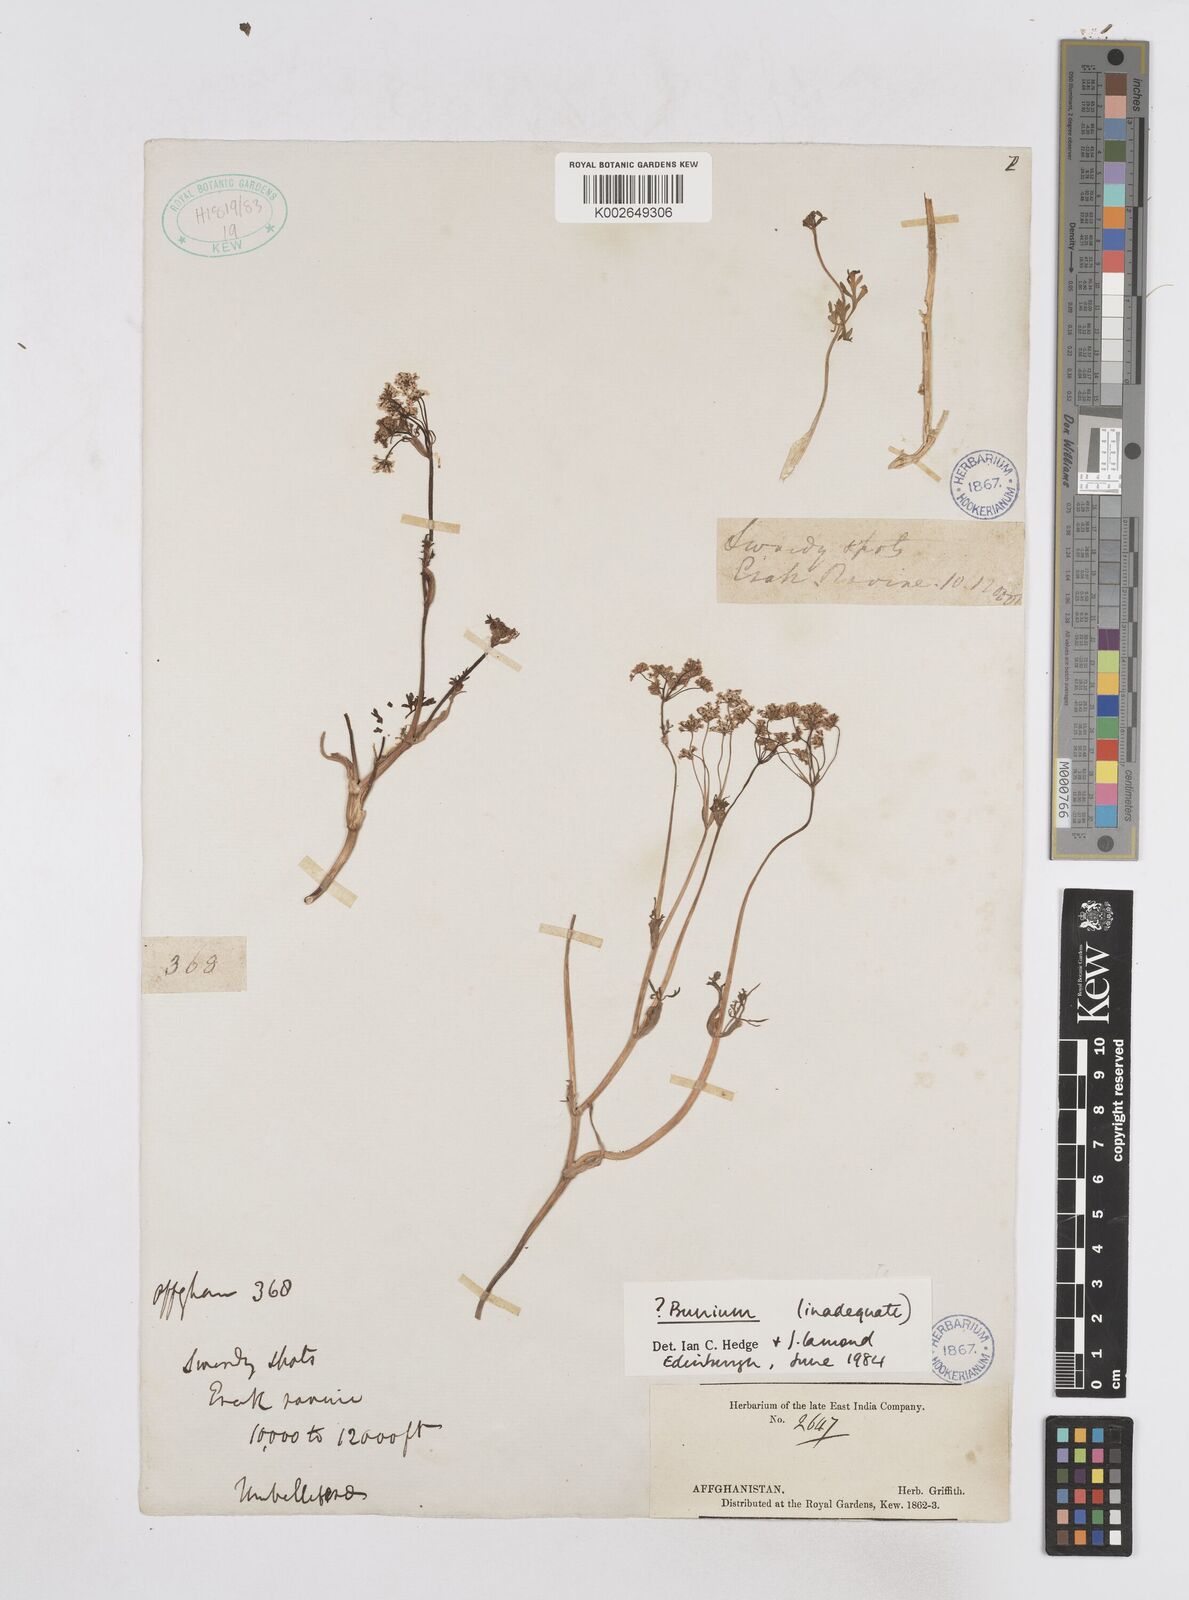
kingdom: Plantae
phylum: Tracheophyta
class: Magnoliopsida
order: Apiales
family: Apiaceae
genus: Bunium
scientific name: Bunium
